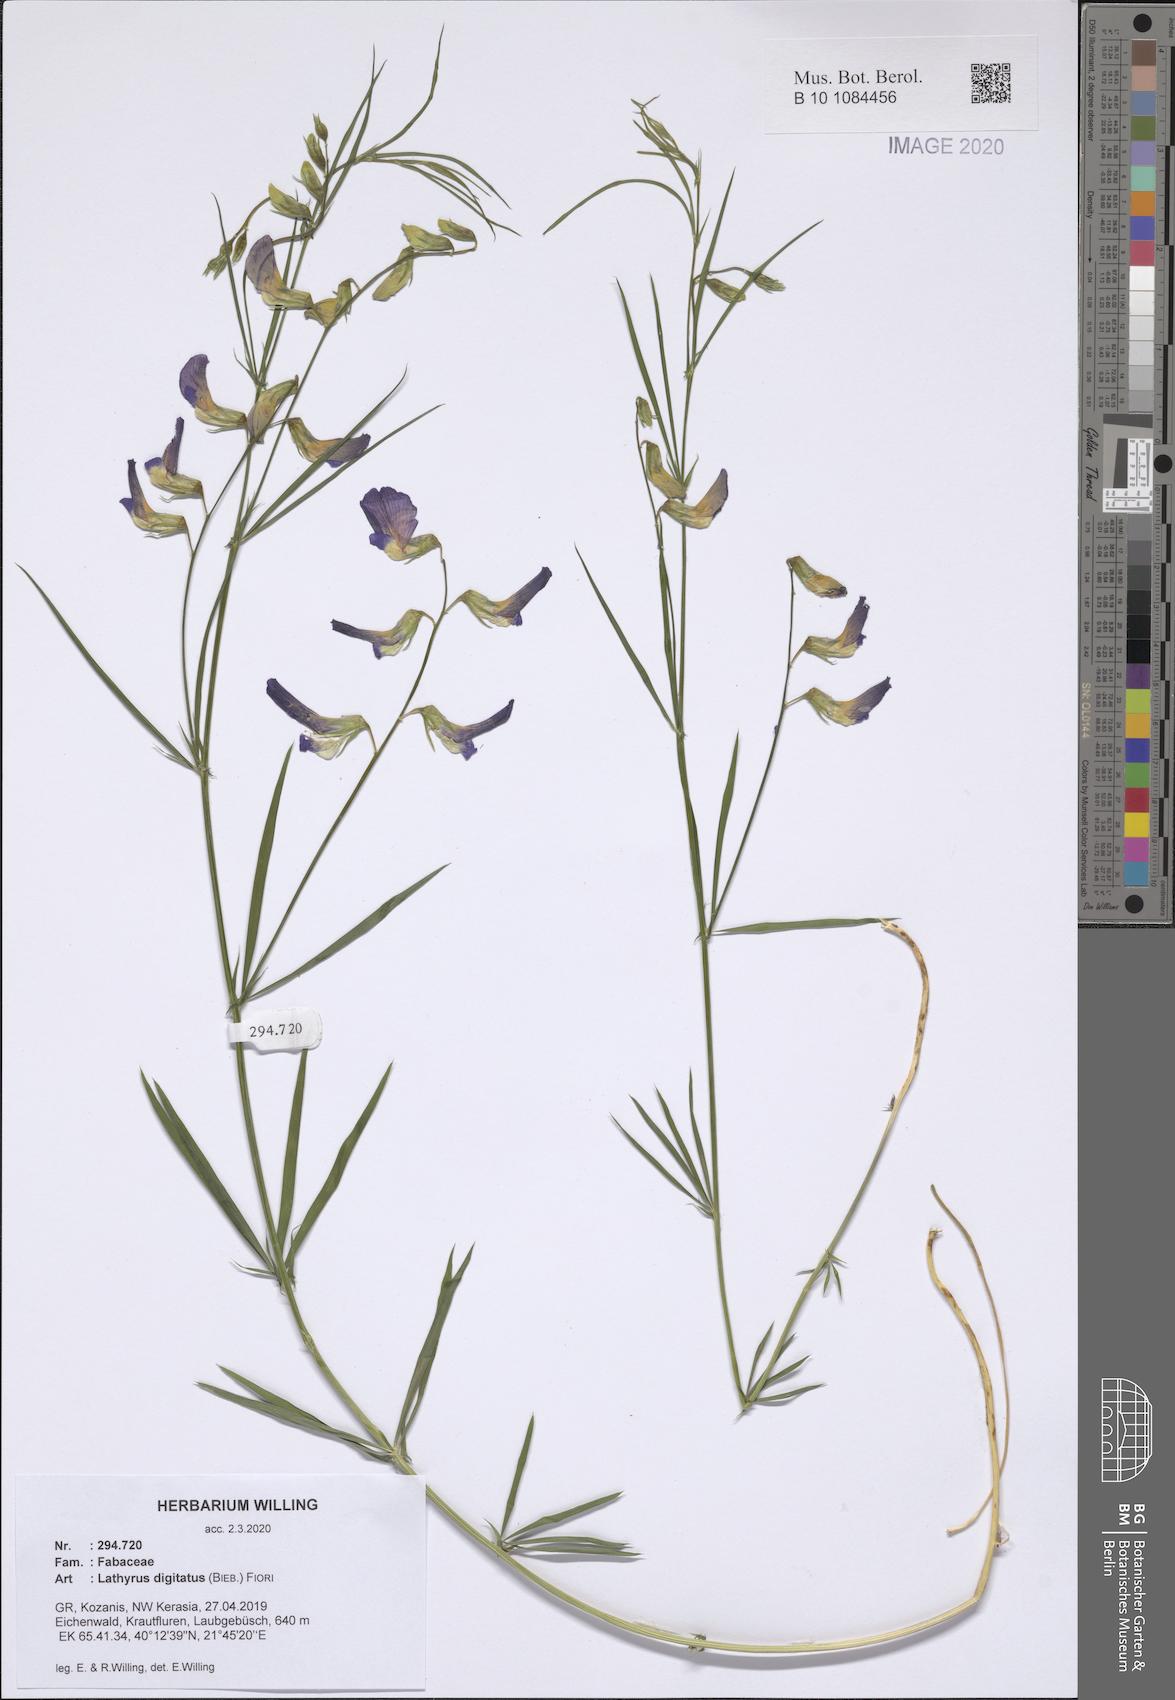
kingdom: Plantae
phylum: Tracheophyta
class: Magnoliopsida
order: Fabales
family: Fabaceae
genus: Lathyrus
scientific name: Lathyrus digitatus
